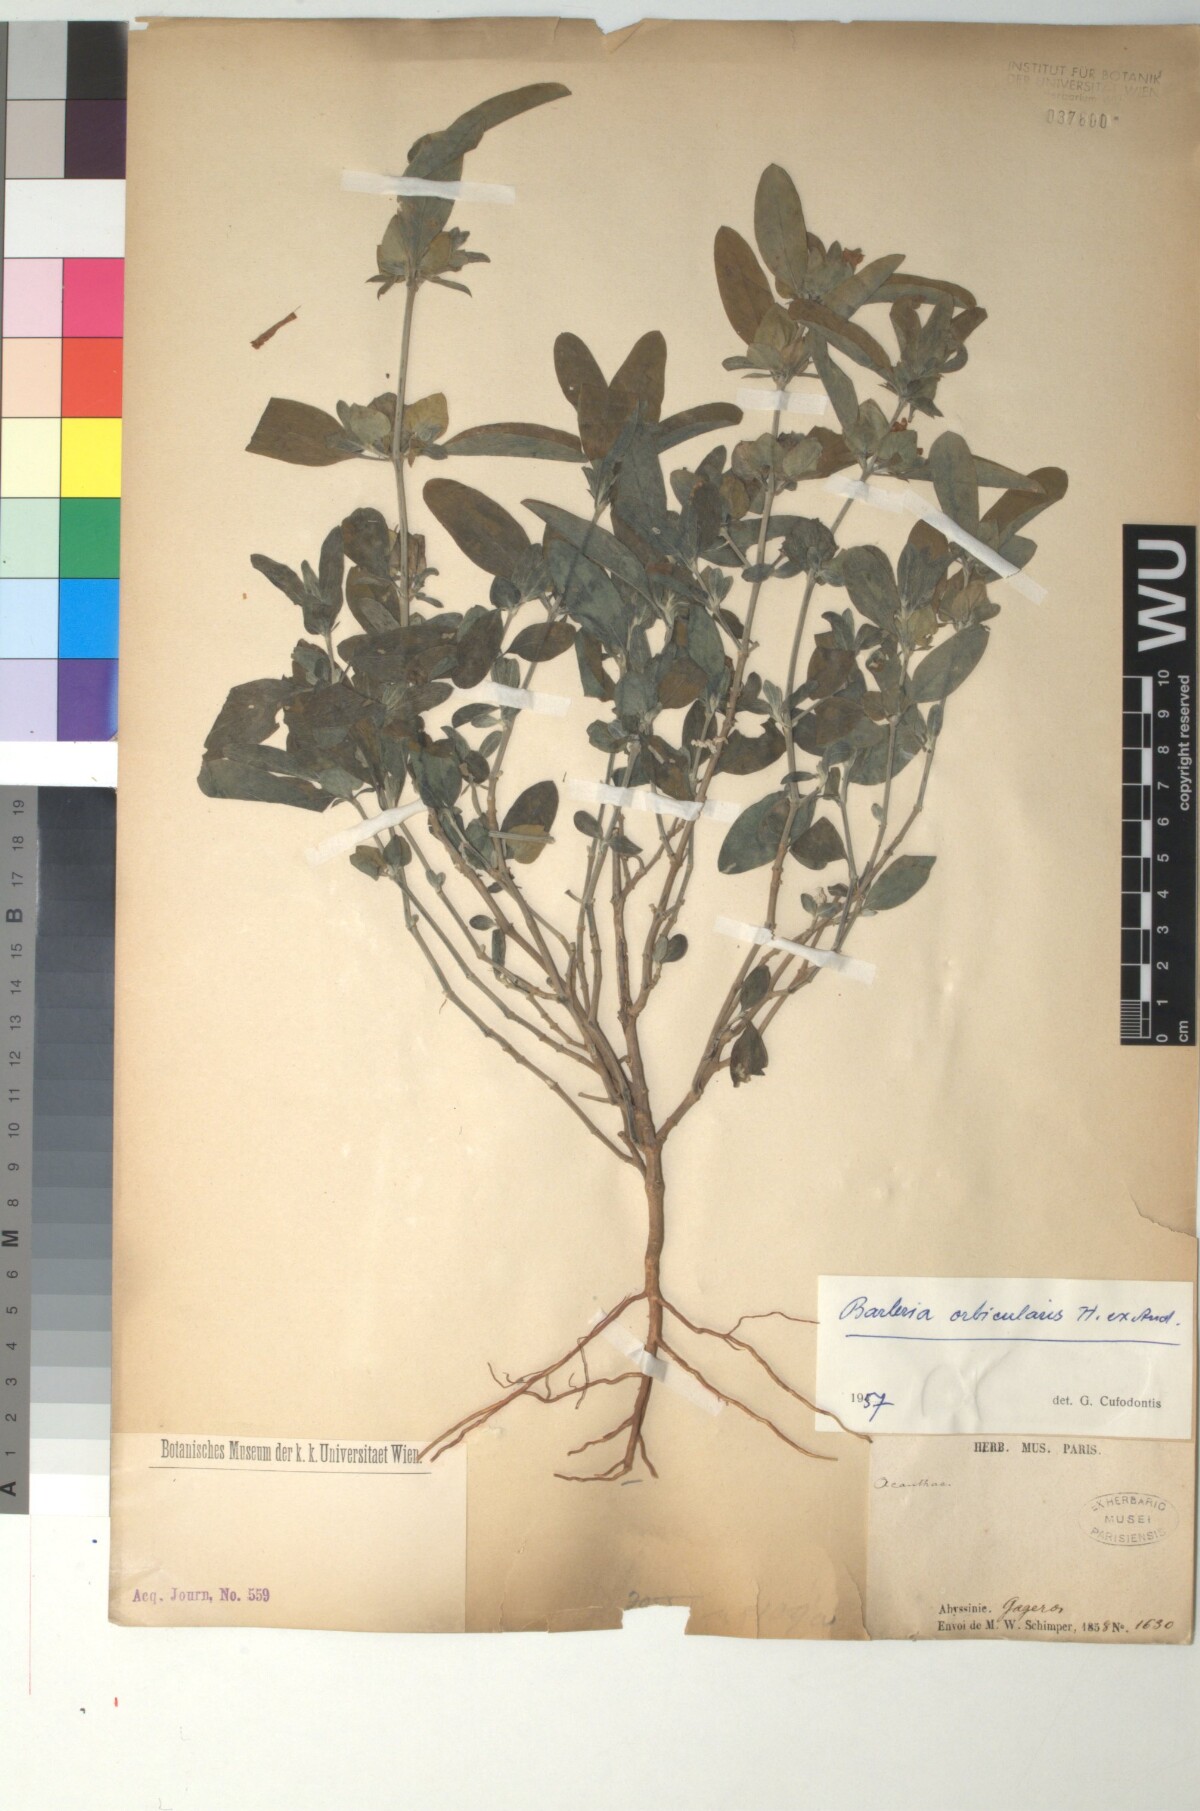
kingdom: Plantae
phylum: Tracheophyta
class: Magnoliopsida
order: Lamiales
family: Acanthaceae
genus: Barleria
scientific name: Barleria orbicularis
